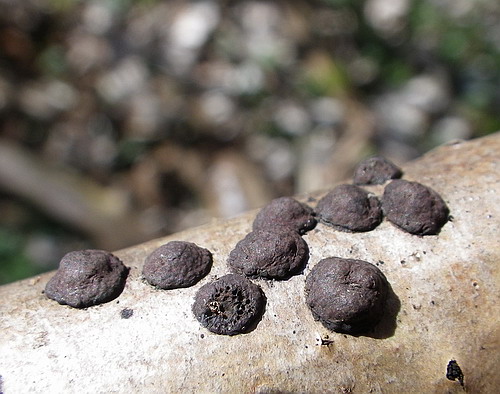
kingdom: Fungi
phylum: Ascomycota
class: Sordariomycetes
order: Xylariales
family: Hypoxylaceae
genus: Hypoxylon
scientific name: Hypoxylon fuscum
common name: kegleformet kulbær
